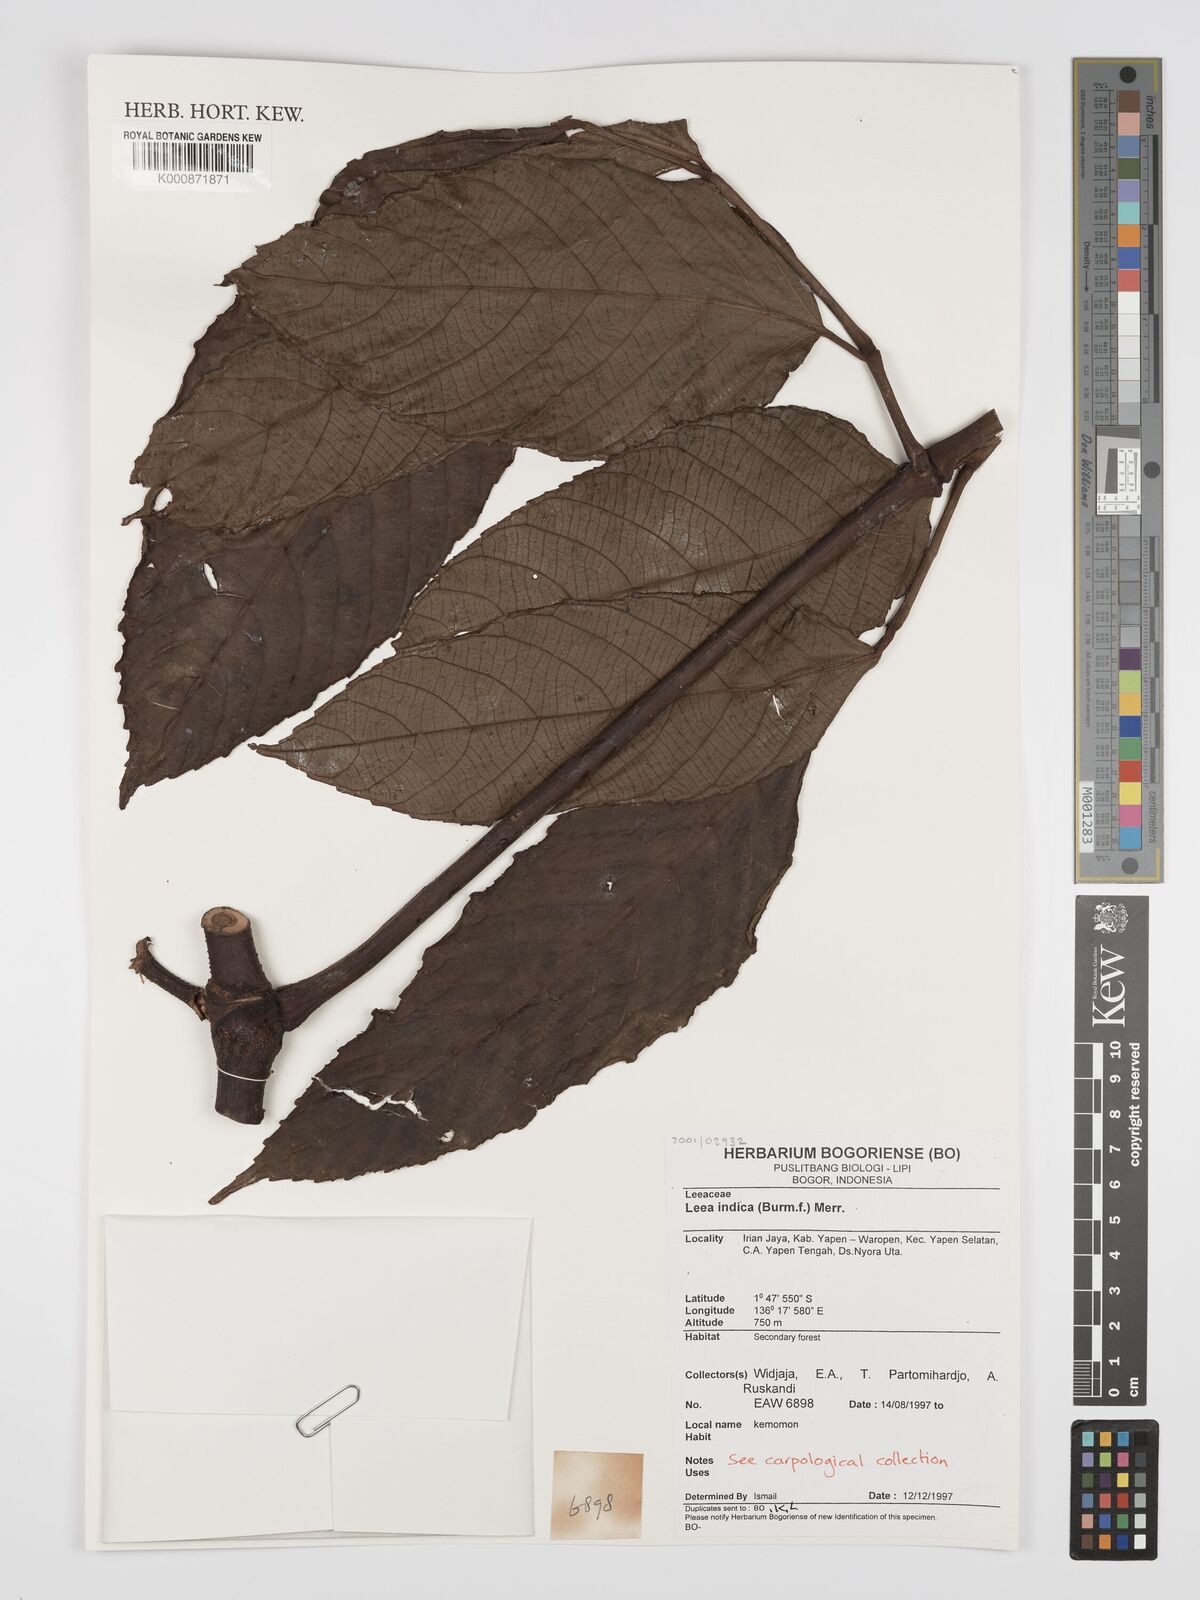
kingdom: Plantae
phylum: Tracheophyta
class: Magnoliopsida
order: Vitales
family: Vitaceae
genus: Leea
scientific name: Leea indica
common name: Bandicoot-berry
